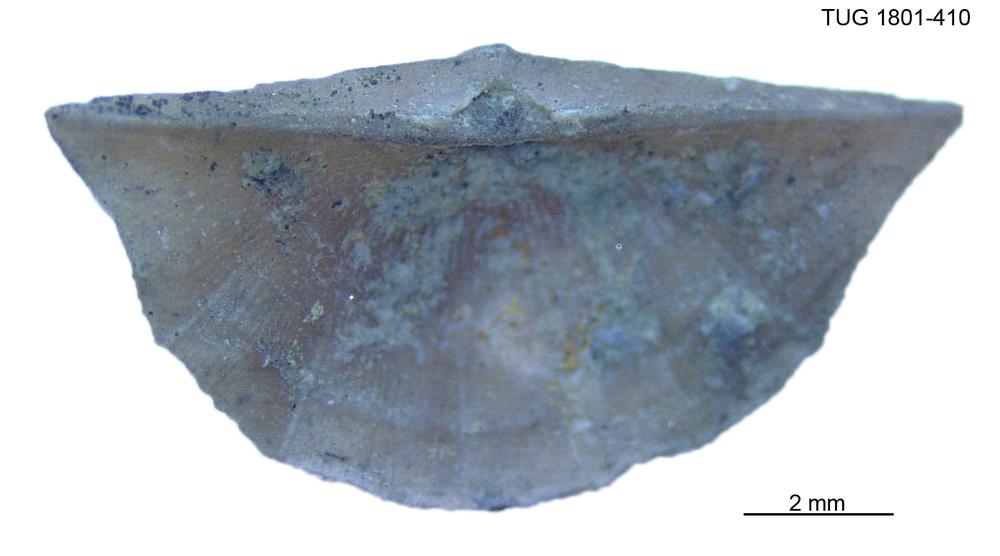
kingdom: Animalia
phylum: Brachiopoda
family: Oldhaminidae
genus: Eoplectodonta
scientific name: Eoplectodonta
